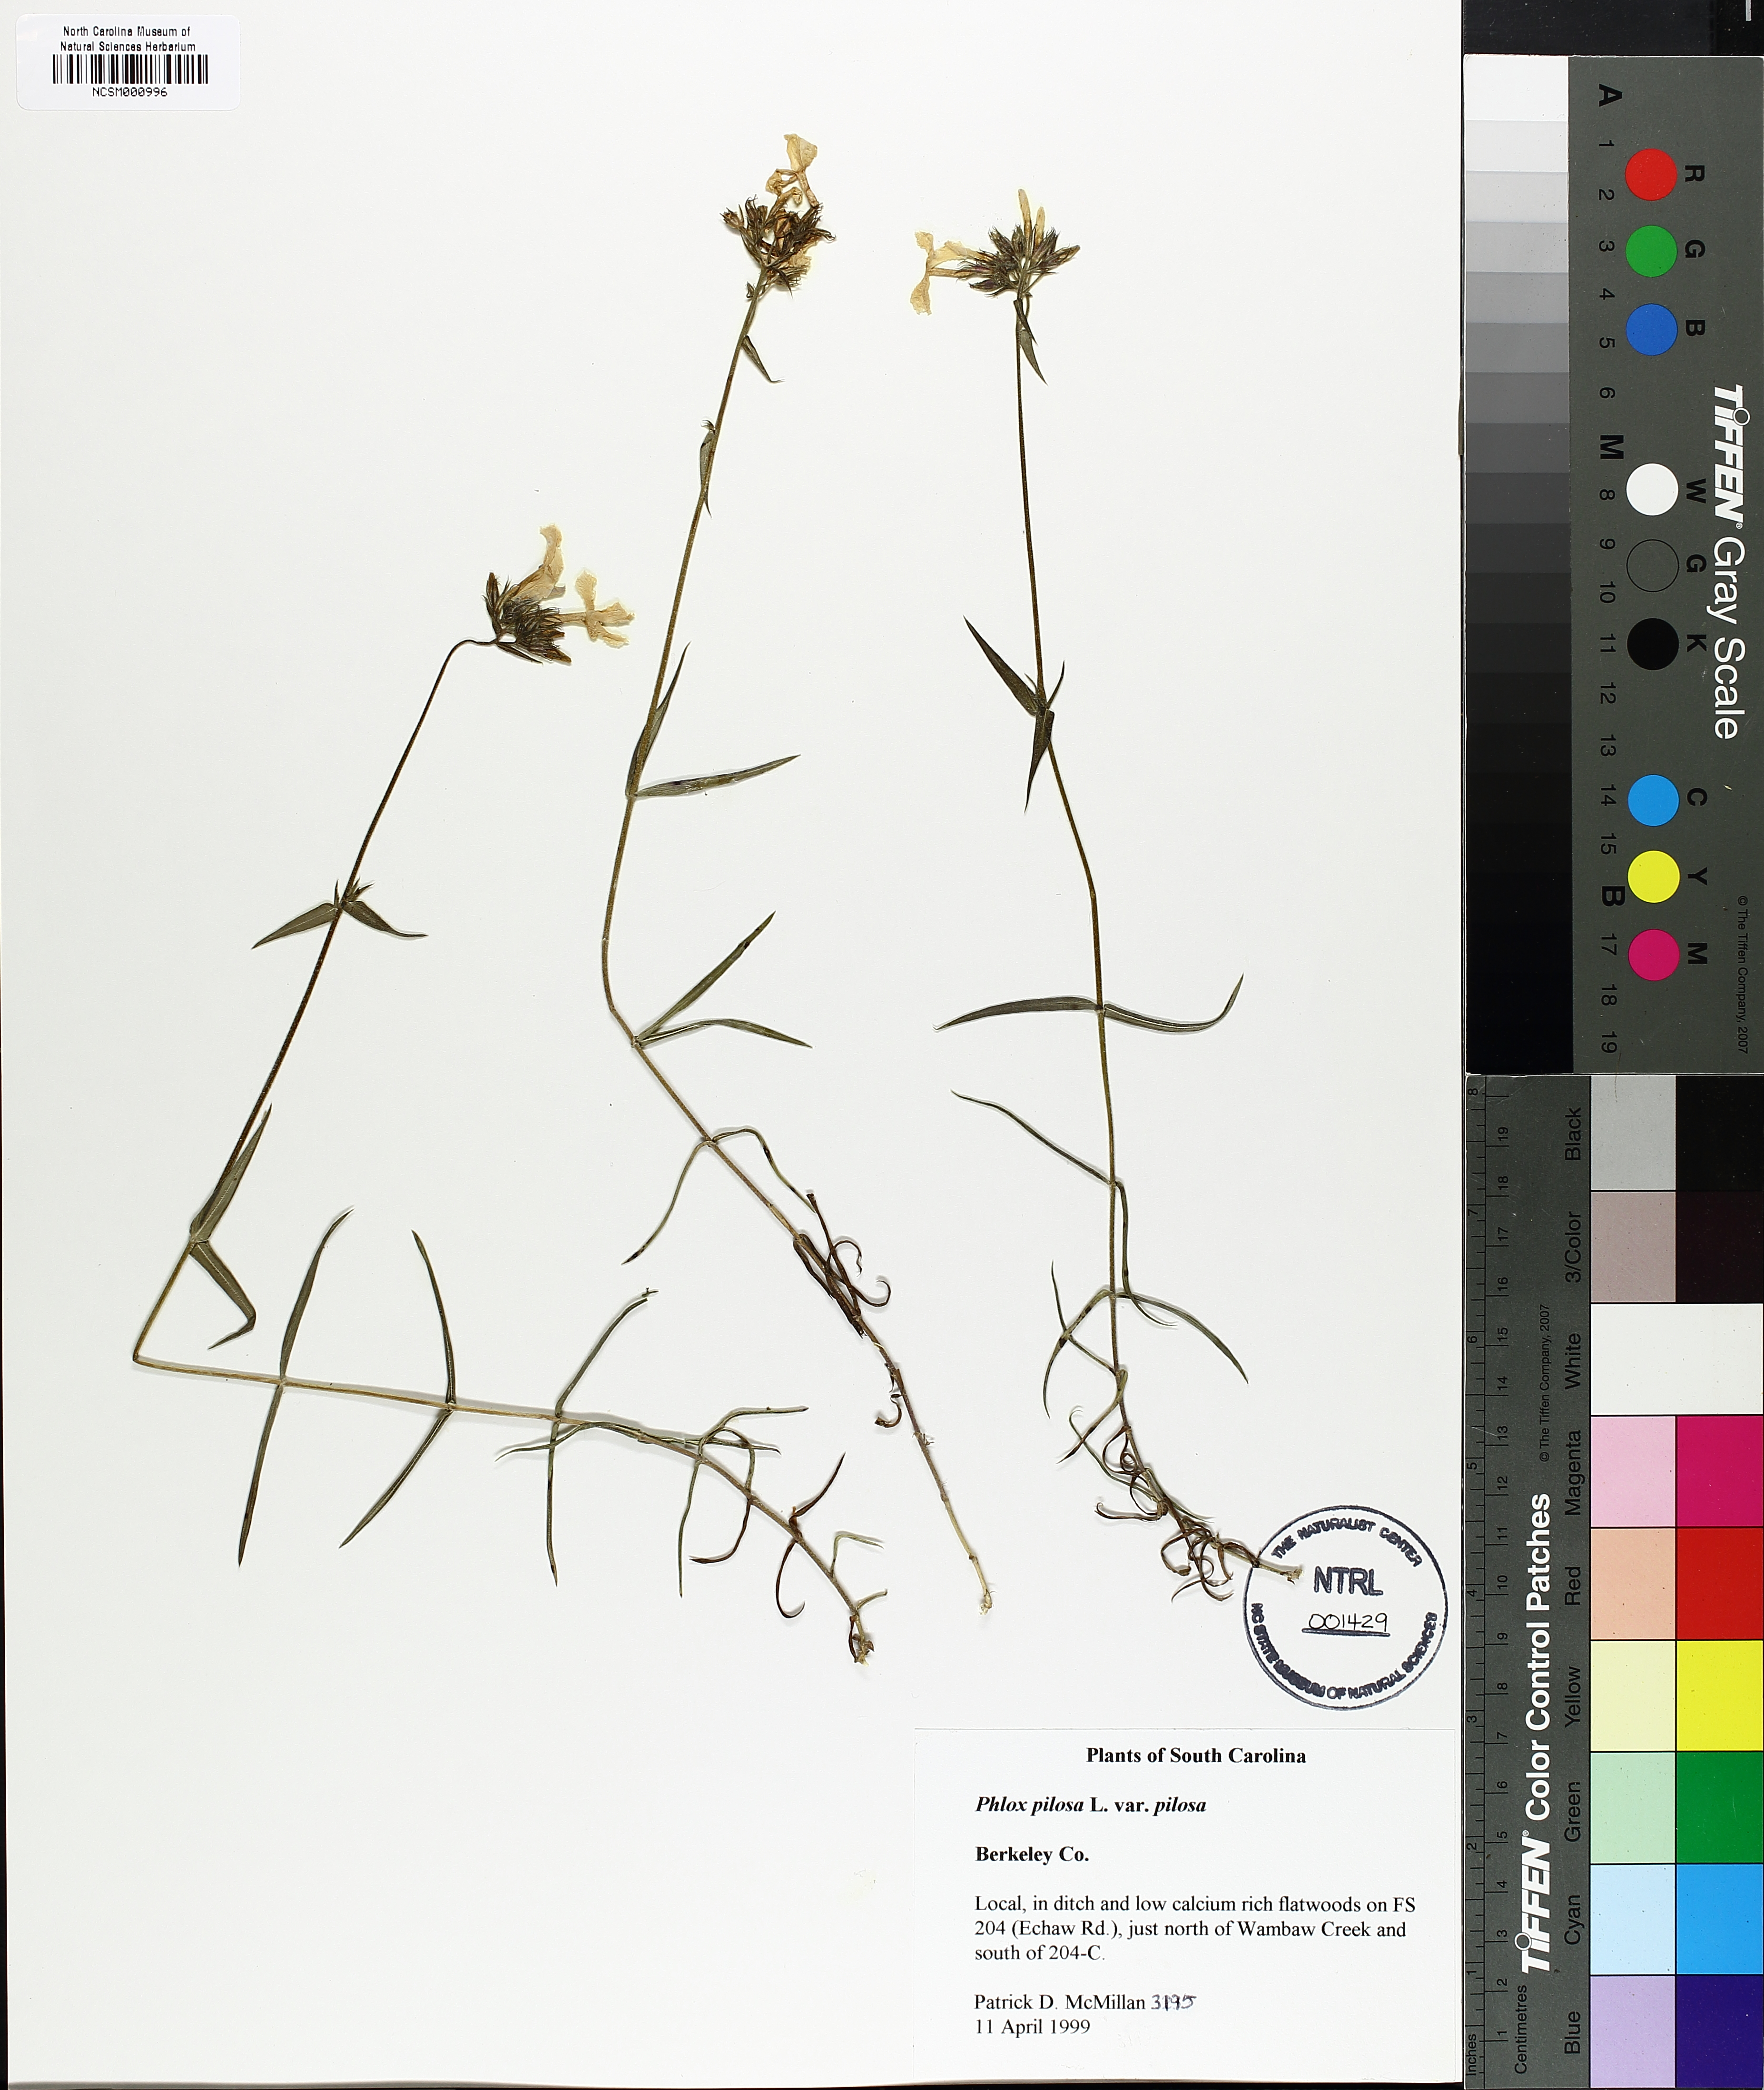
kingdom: Plantae
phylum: Tracheophyta
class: Magnoliopsida
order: Ericales
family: Polemoniaceae
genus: Phlox
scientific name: Phlox pilosa
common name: Prairie phlox
